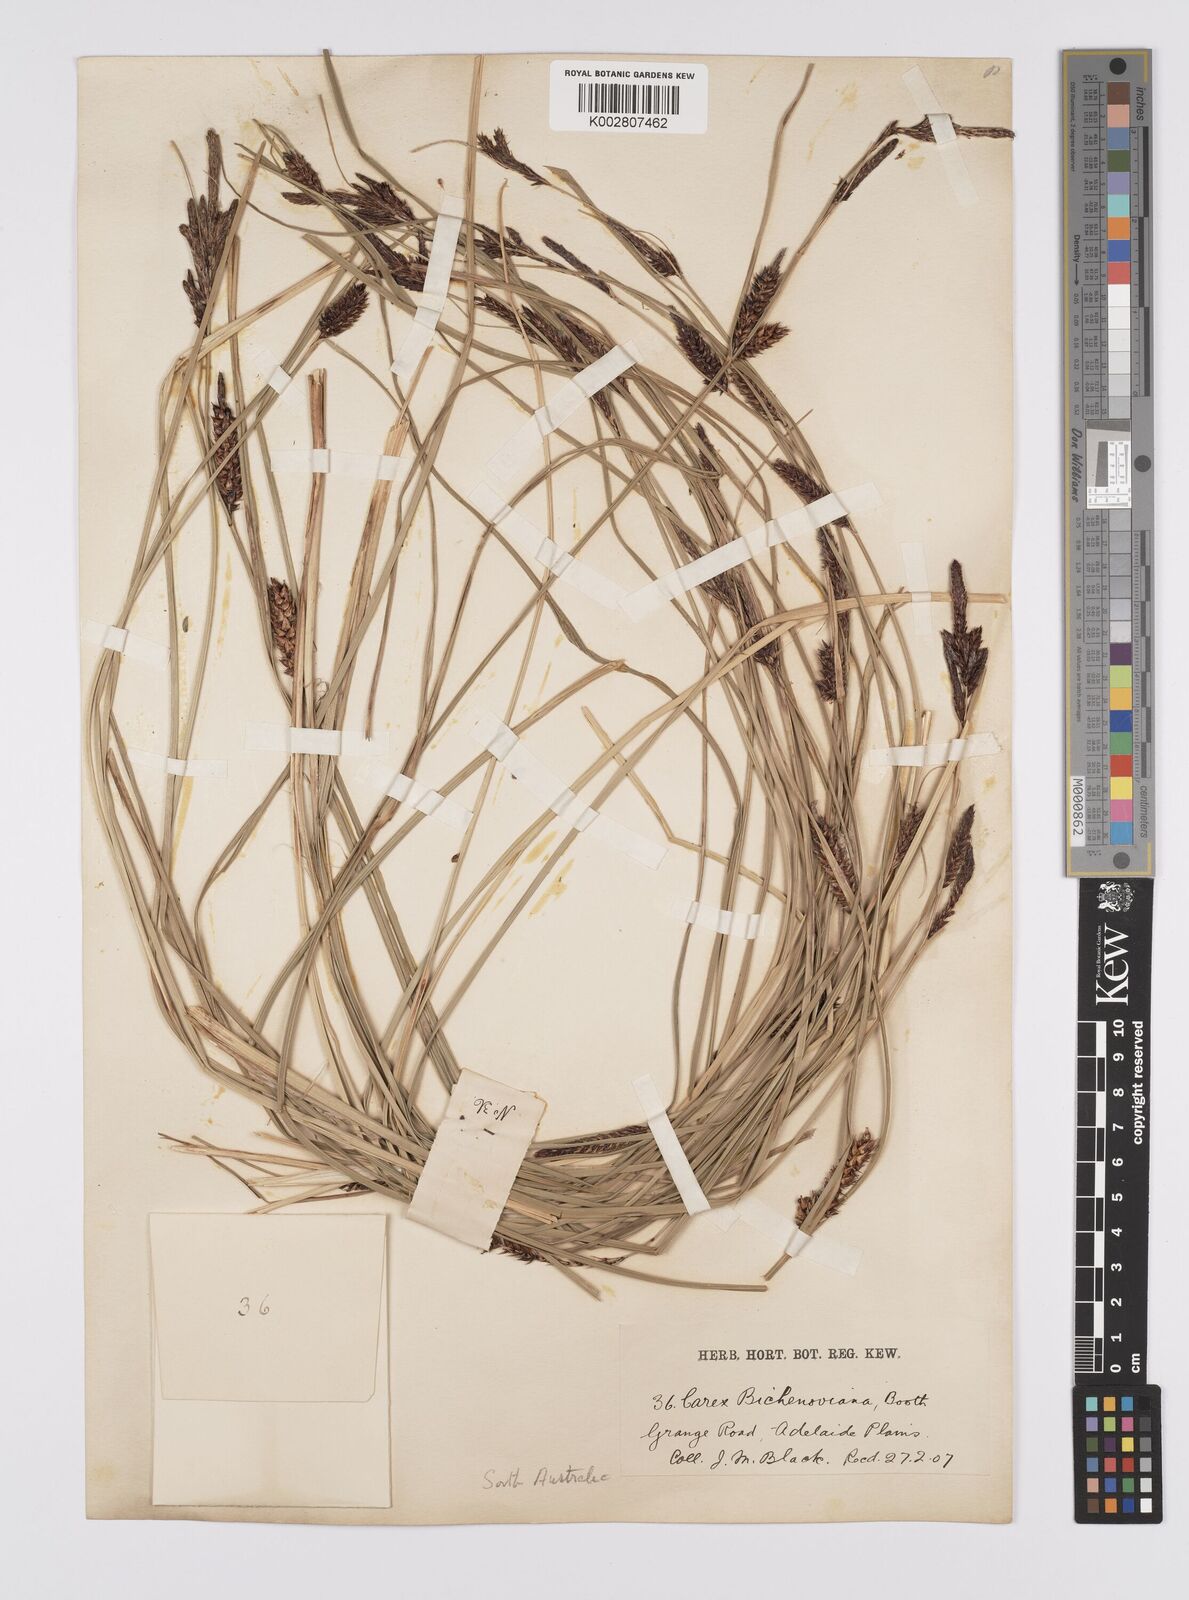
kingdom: Plantae
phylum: Tracheophyta
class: Liliopsida
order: Poales
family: Cyperaceae
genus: Carex
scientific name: Carex bichenoviana
